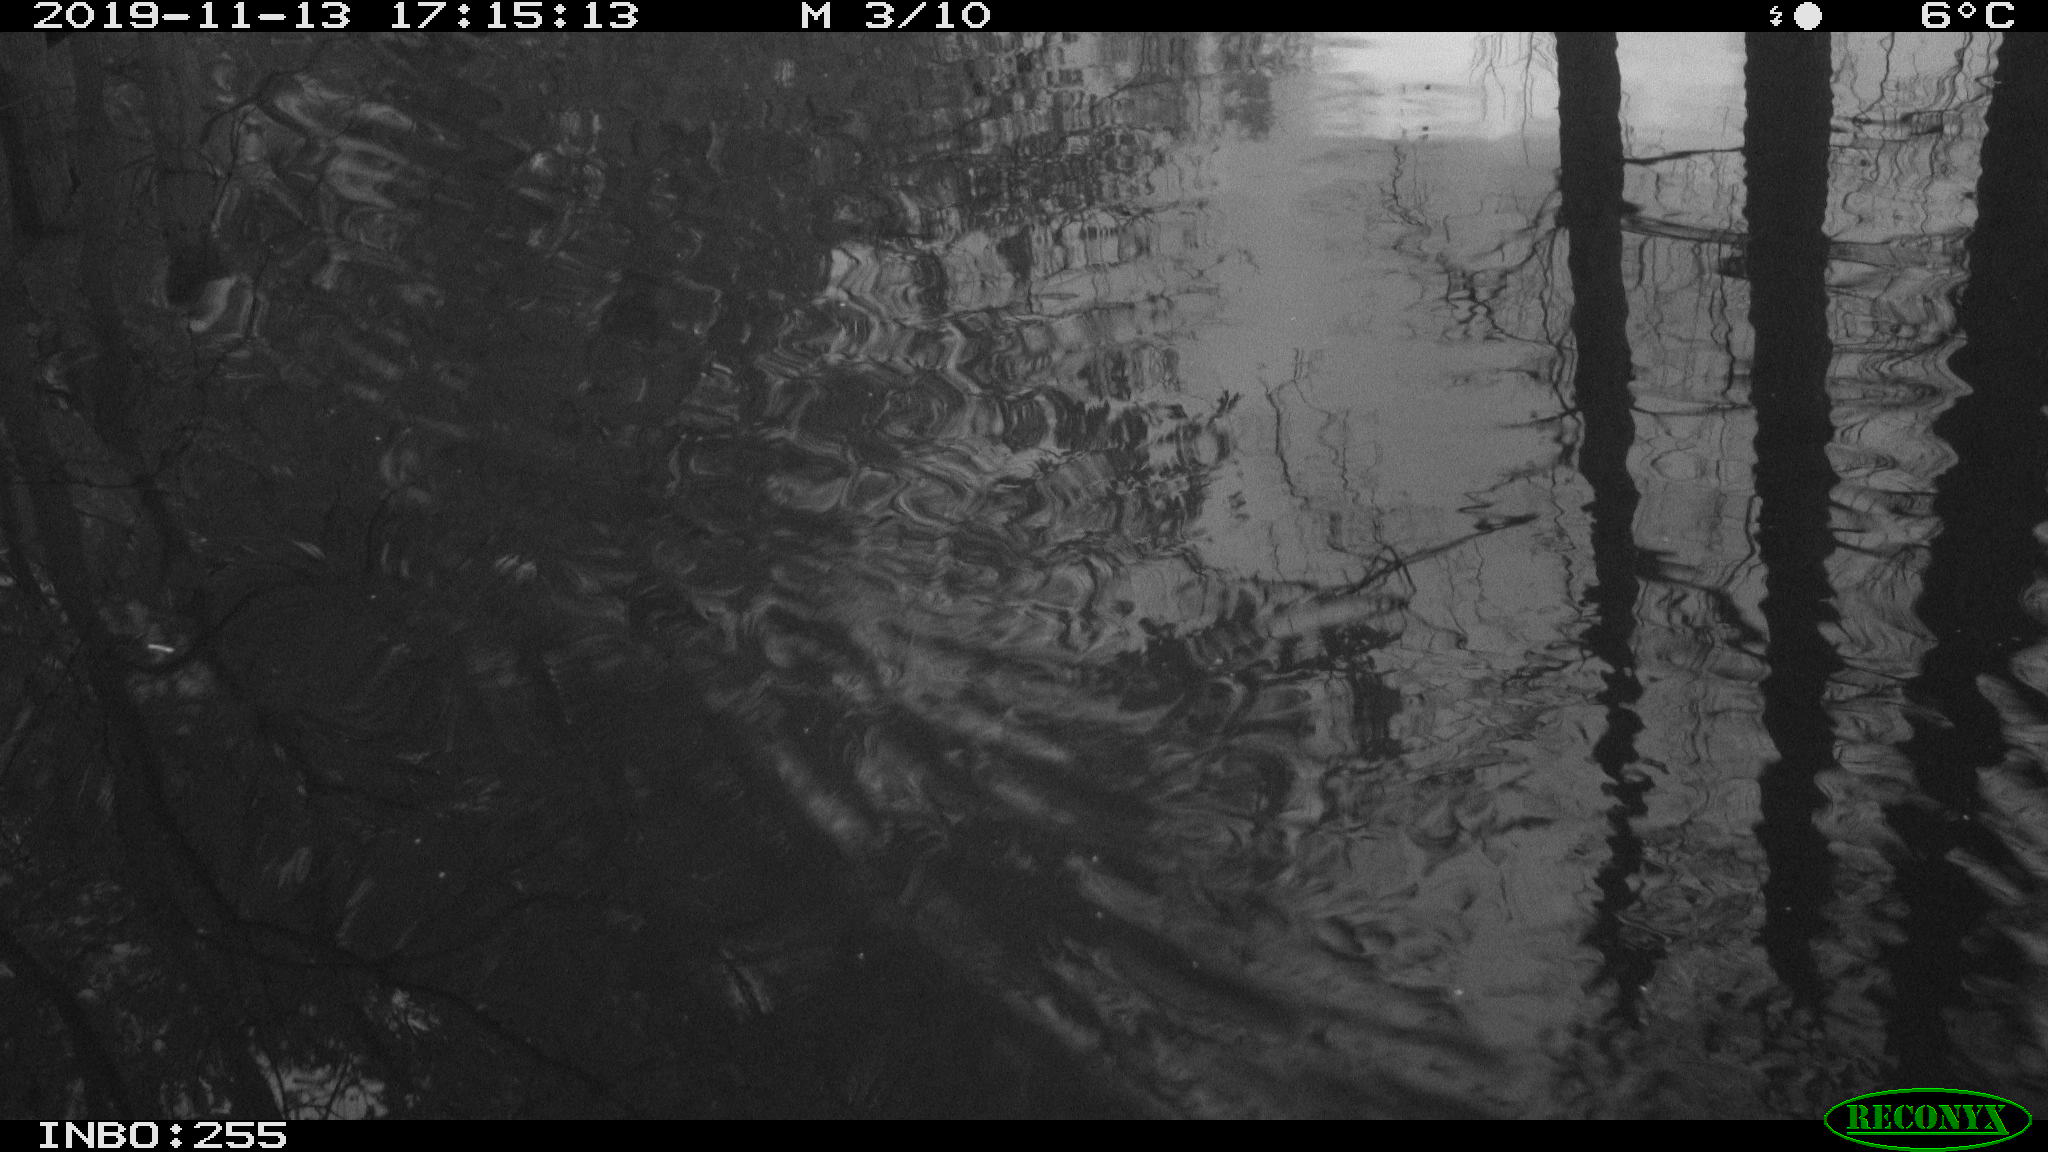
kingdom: Animalia
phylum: Chordata
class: Aves
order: Gruiformes
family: Rallidae
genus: Gallinula
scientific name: Gallinula chloropus
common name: Common moorhen
